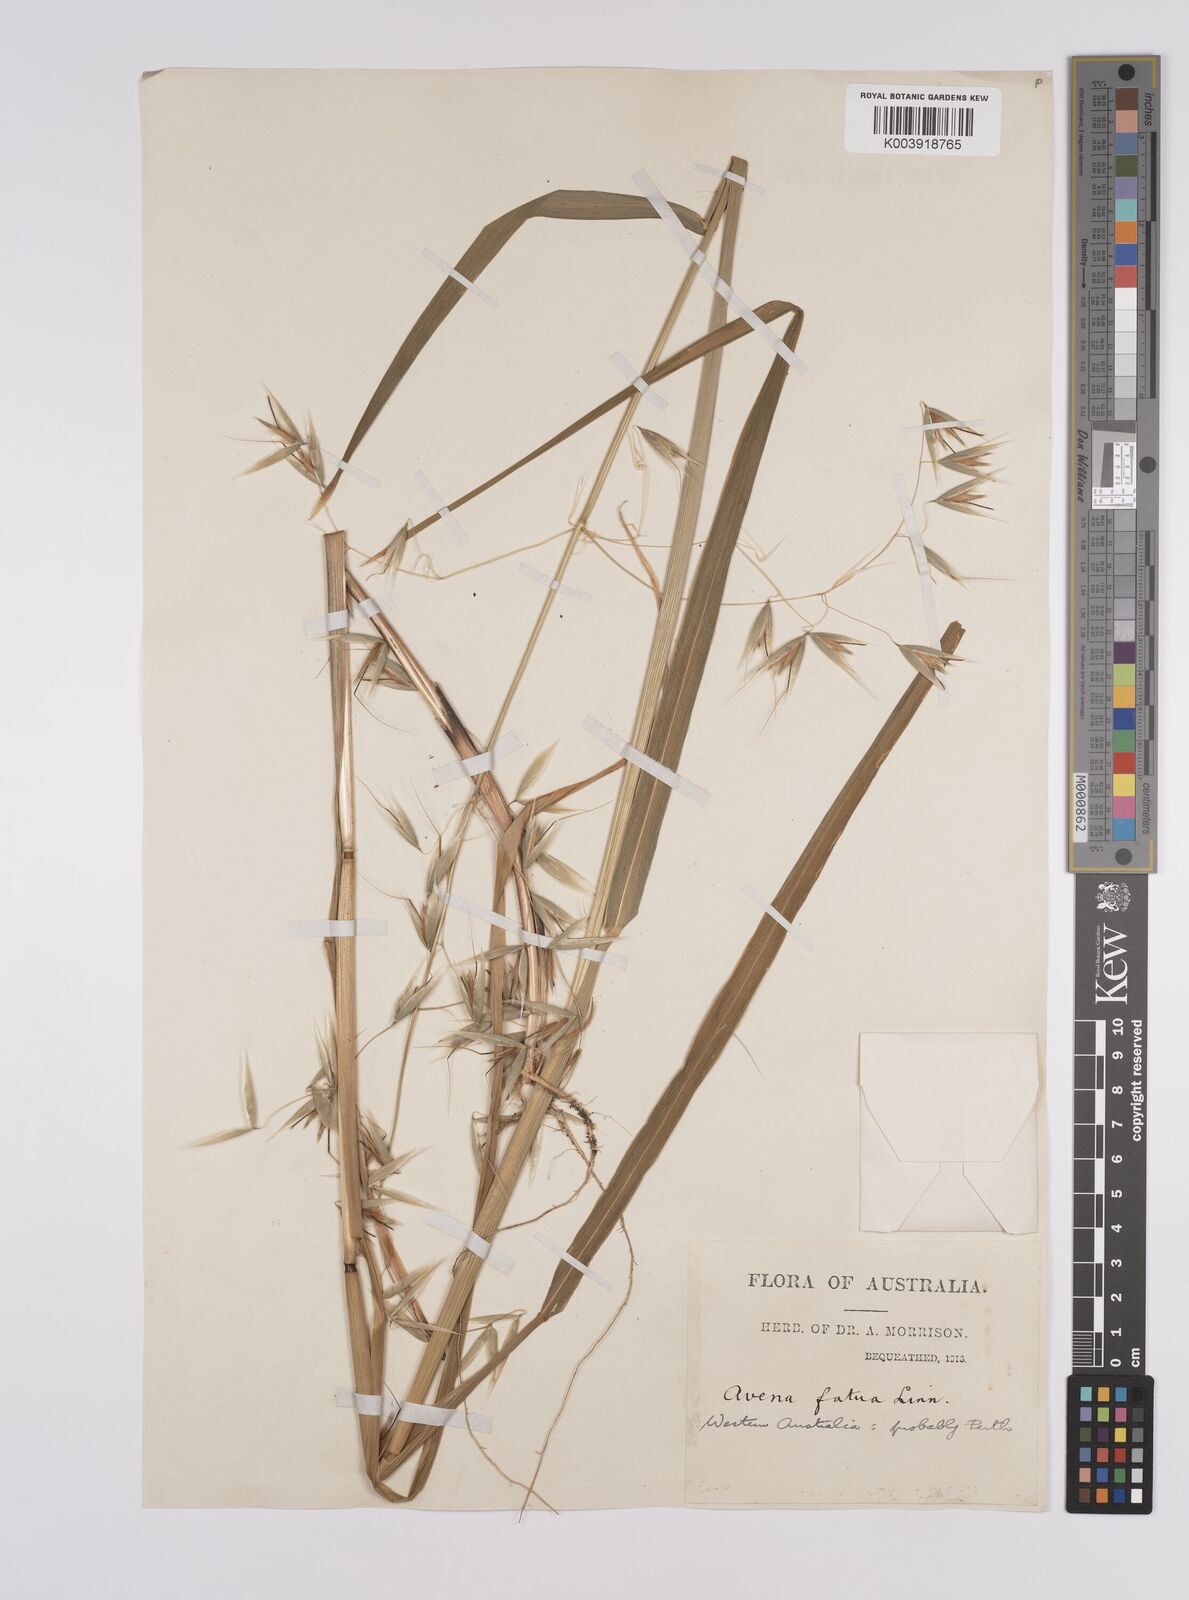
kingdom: Plantae
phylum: Tracheophyta
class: Liliopsida
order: Poales
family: Poaceae
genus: Avena
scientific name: Avena fatua
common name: Wild oat
